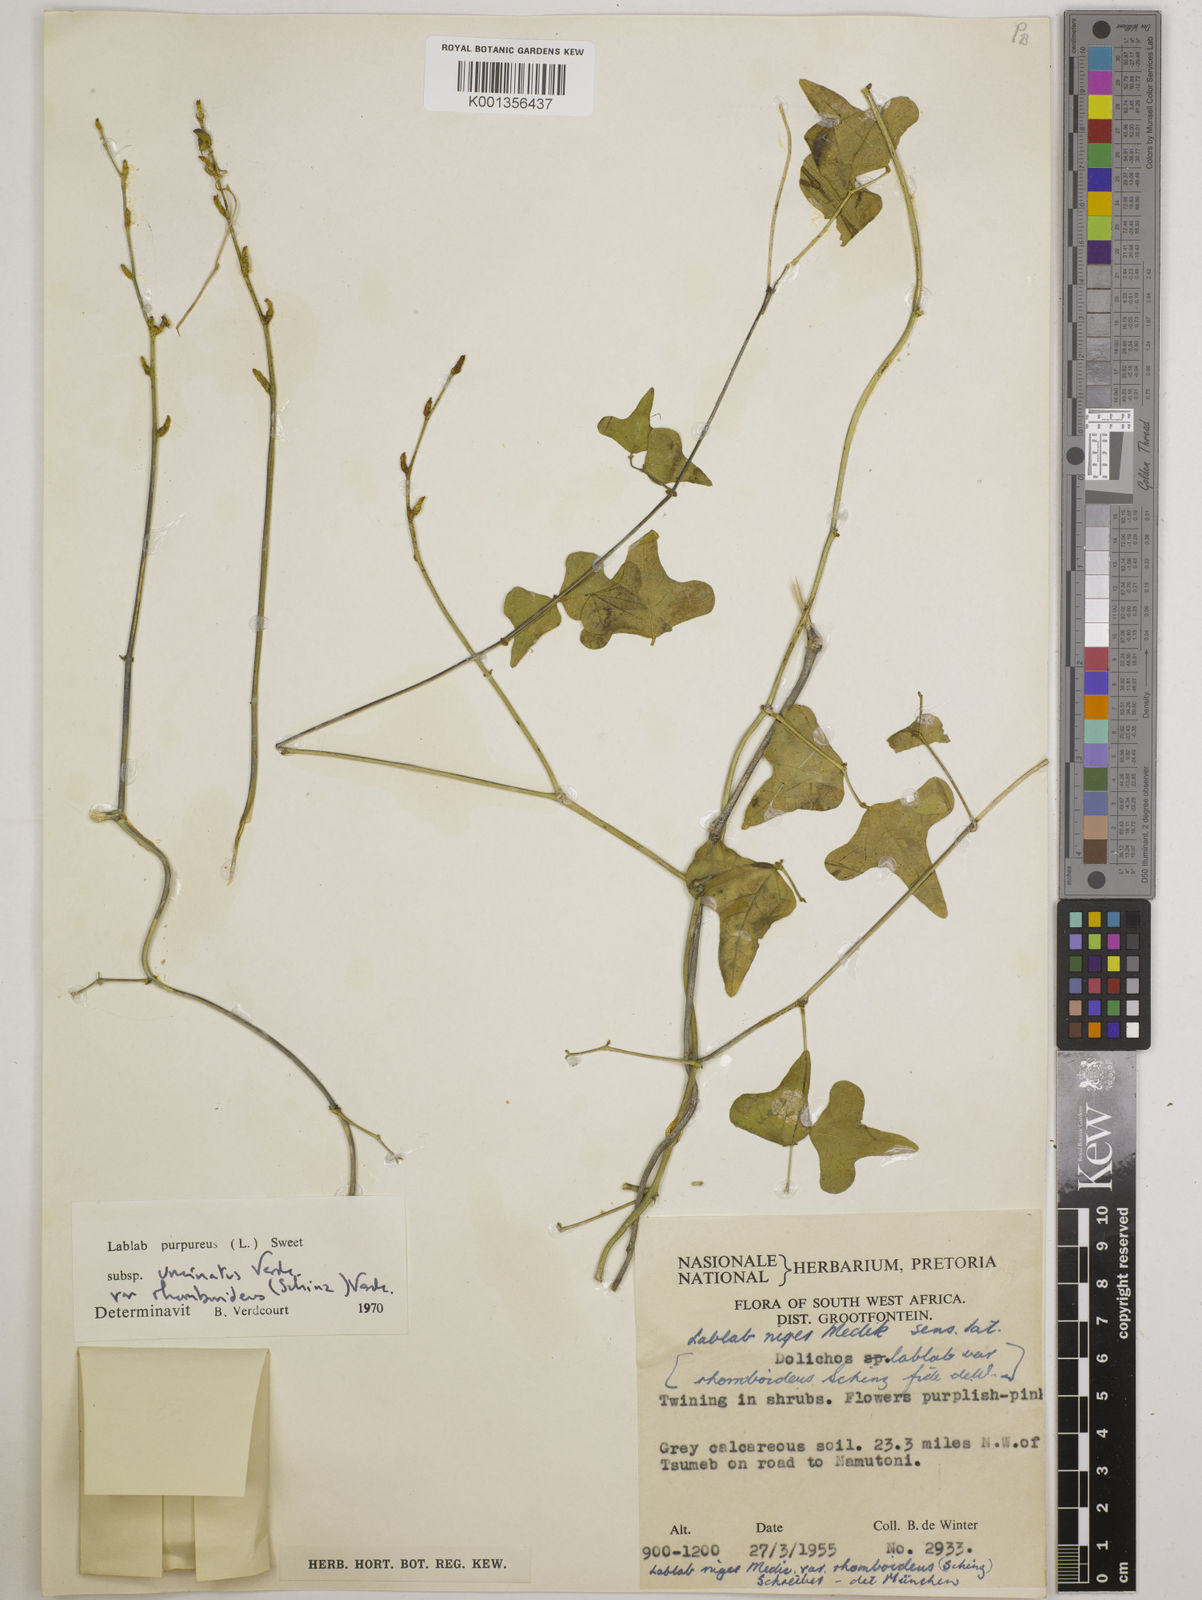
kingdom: Plantae
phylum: Tracheophyta
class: Magnoliopsida
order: Fabales
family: Fabaceae
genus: Lablab
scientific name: Lablab purpureus
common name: Lablab-bean
